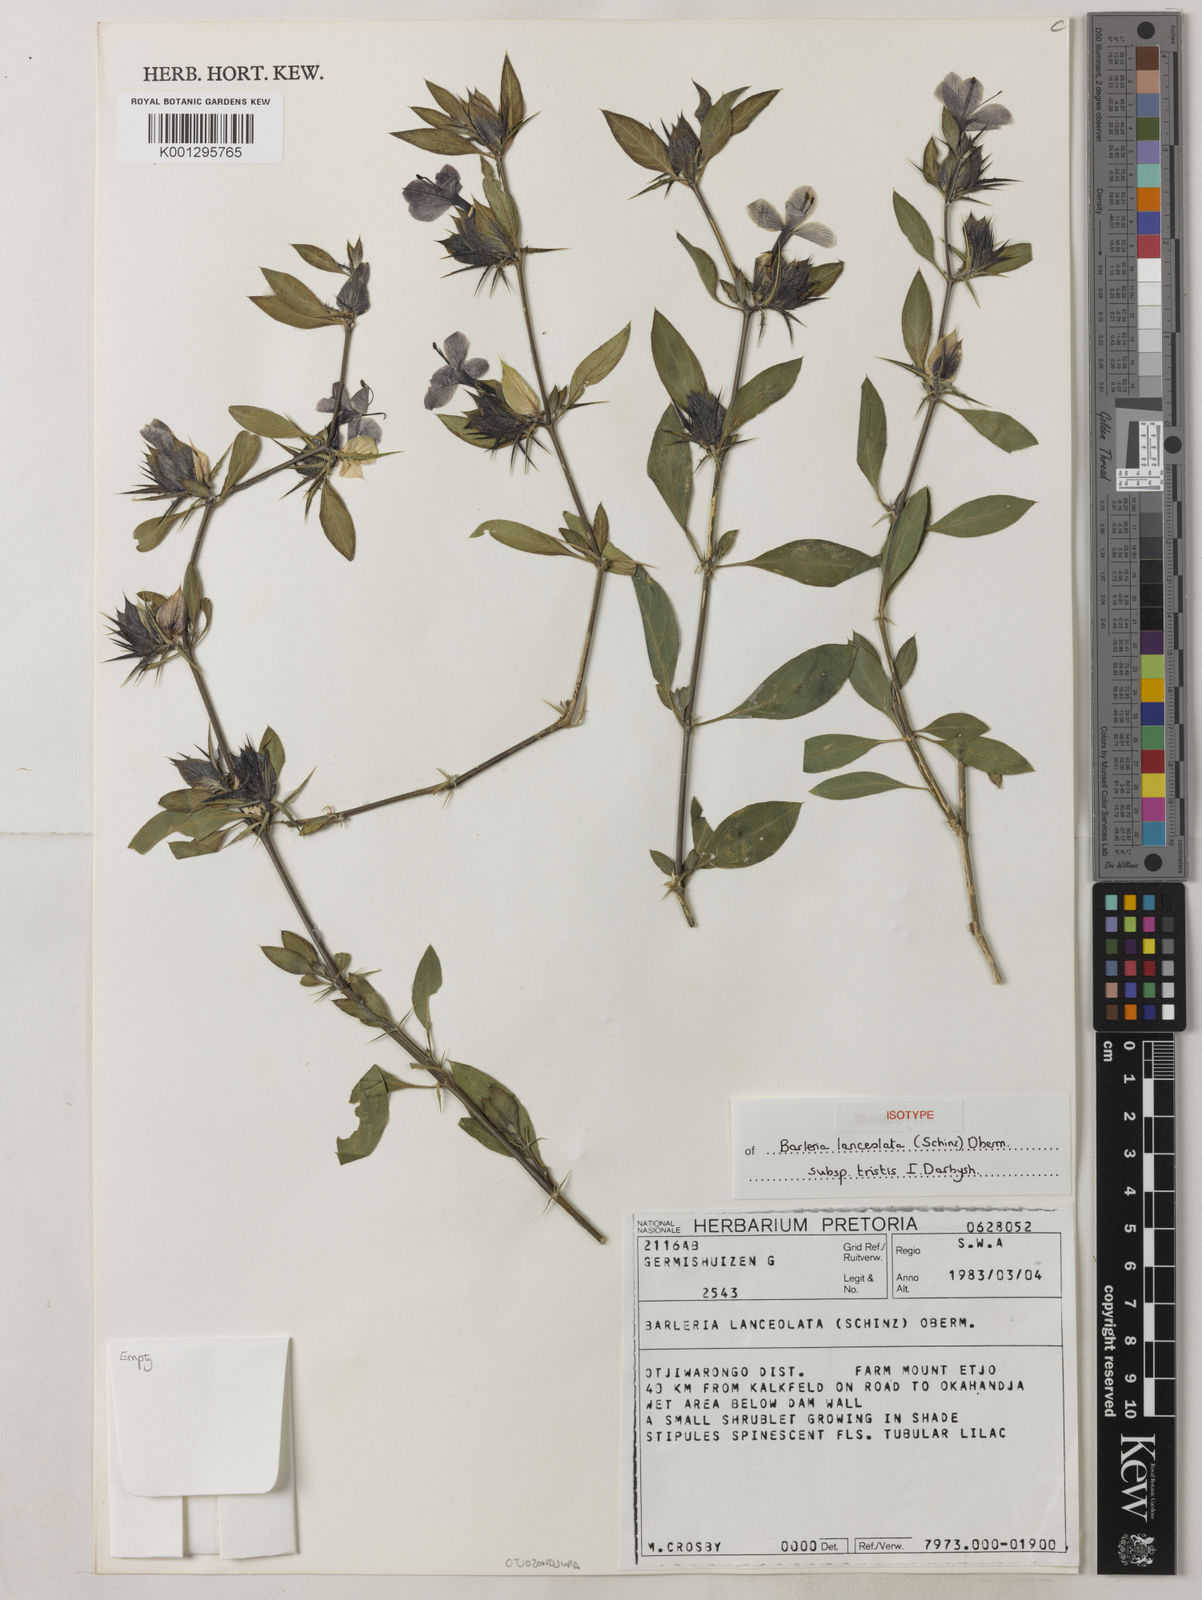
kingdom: Plantae
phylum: Tracheophyta
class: Magnoliopsida
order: Lamiales
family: Acanthaceae
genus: Barleria
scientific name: Barleria lanceolata
